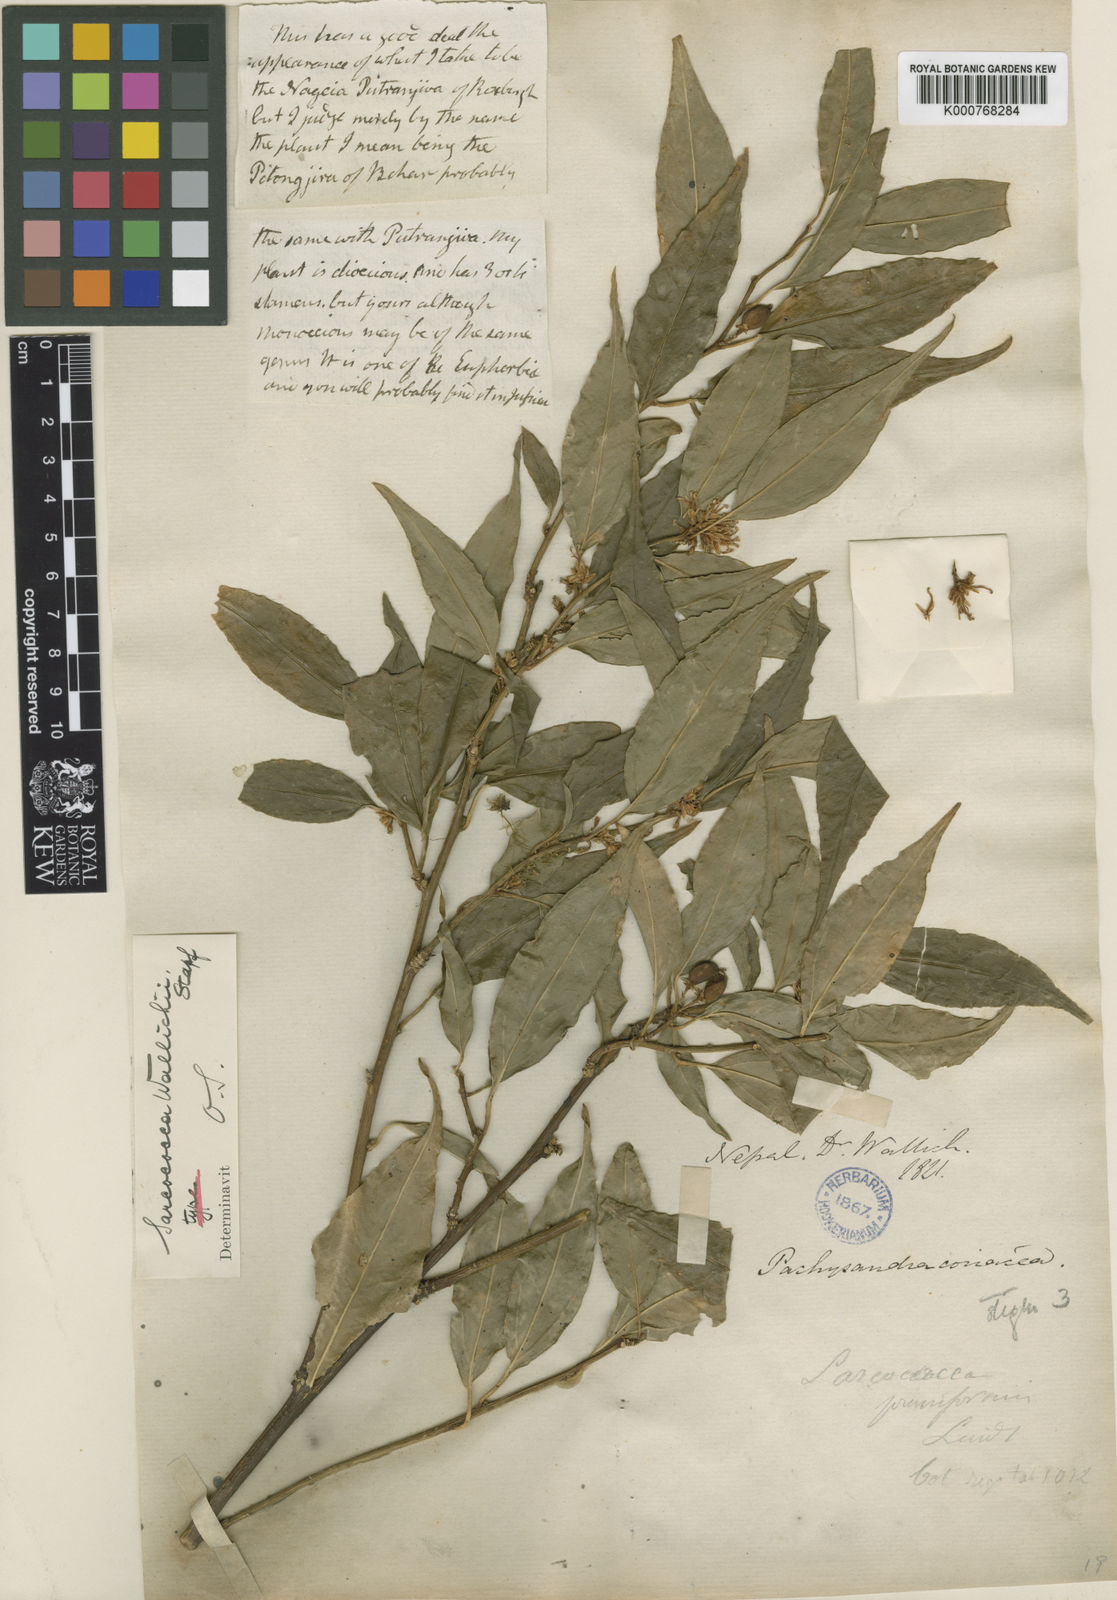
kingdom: Plantae
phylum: Tracheophyta
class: Magnoliopsida
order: Buxales
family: Buxaceae
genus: Sarcococca
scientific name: Sarcococca wallichii
